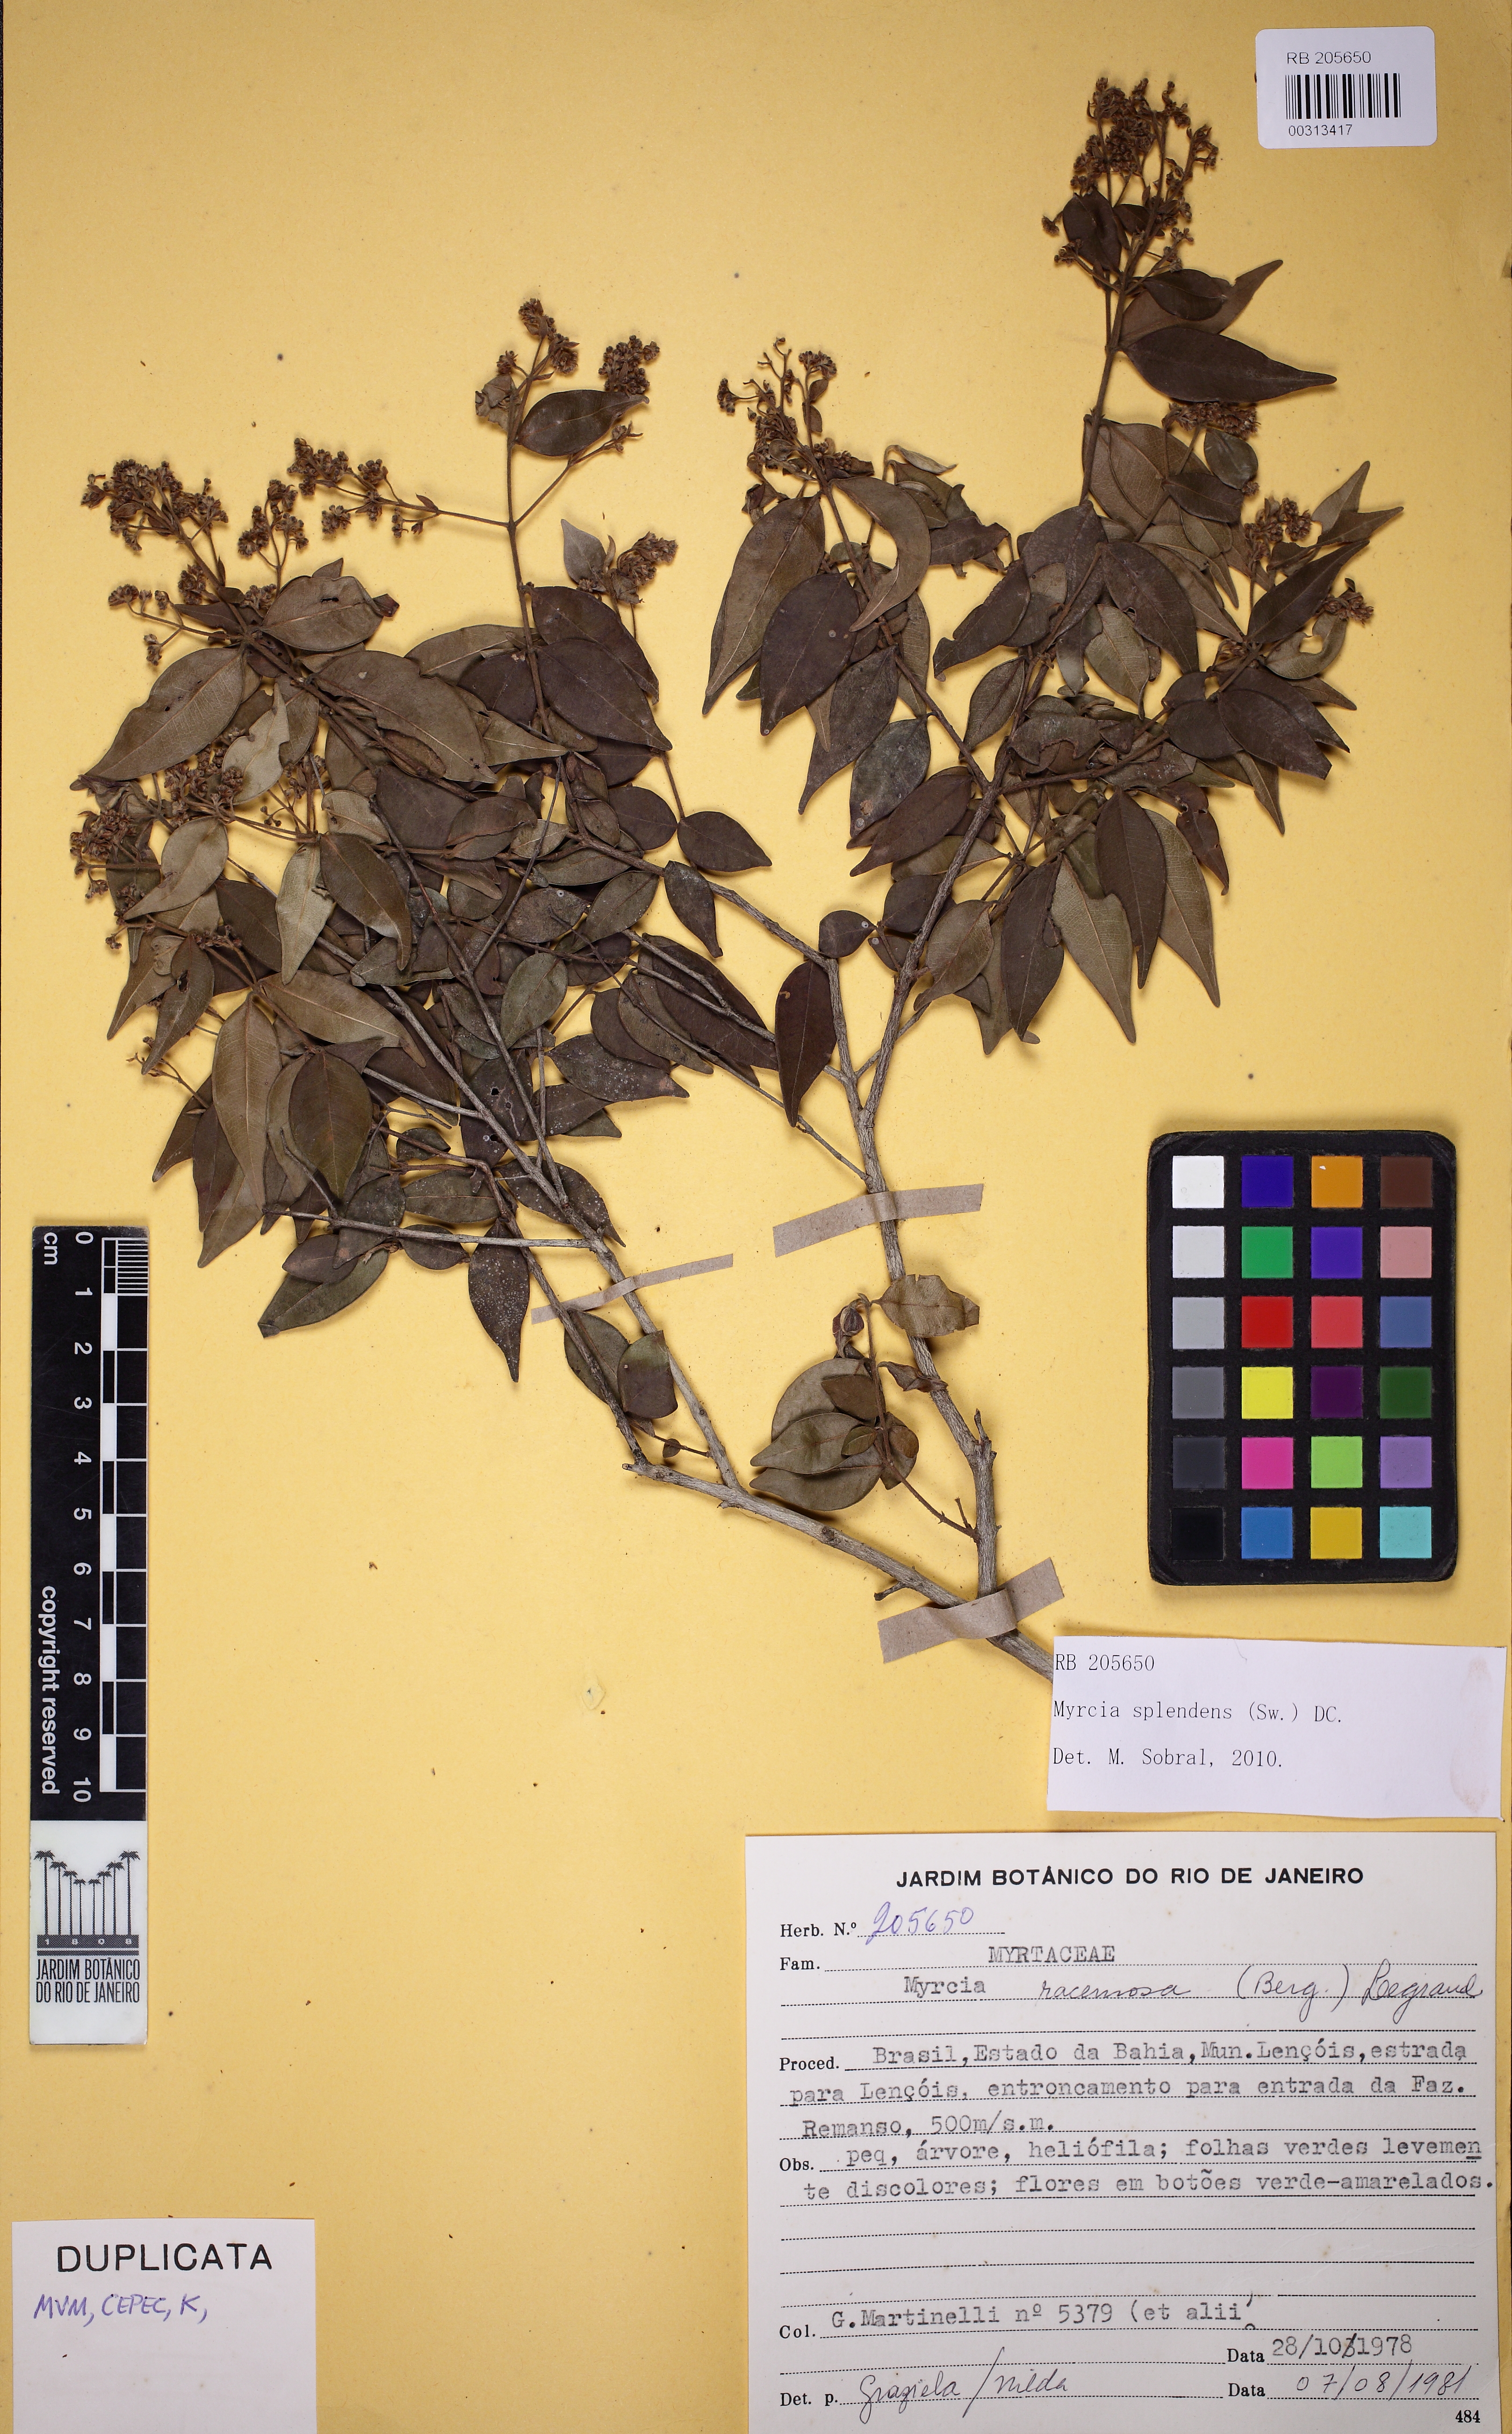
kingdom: Plantae
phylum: Tracheophyta
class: Magnoliopsida
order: Myrtales
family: Myrtaceae
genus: Myrcia
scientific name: Myrcia splendens
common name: Surinam cherry
